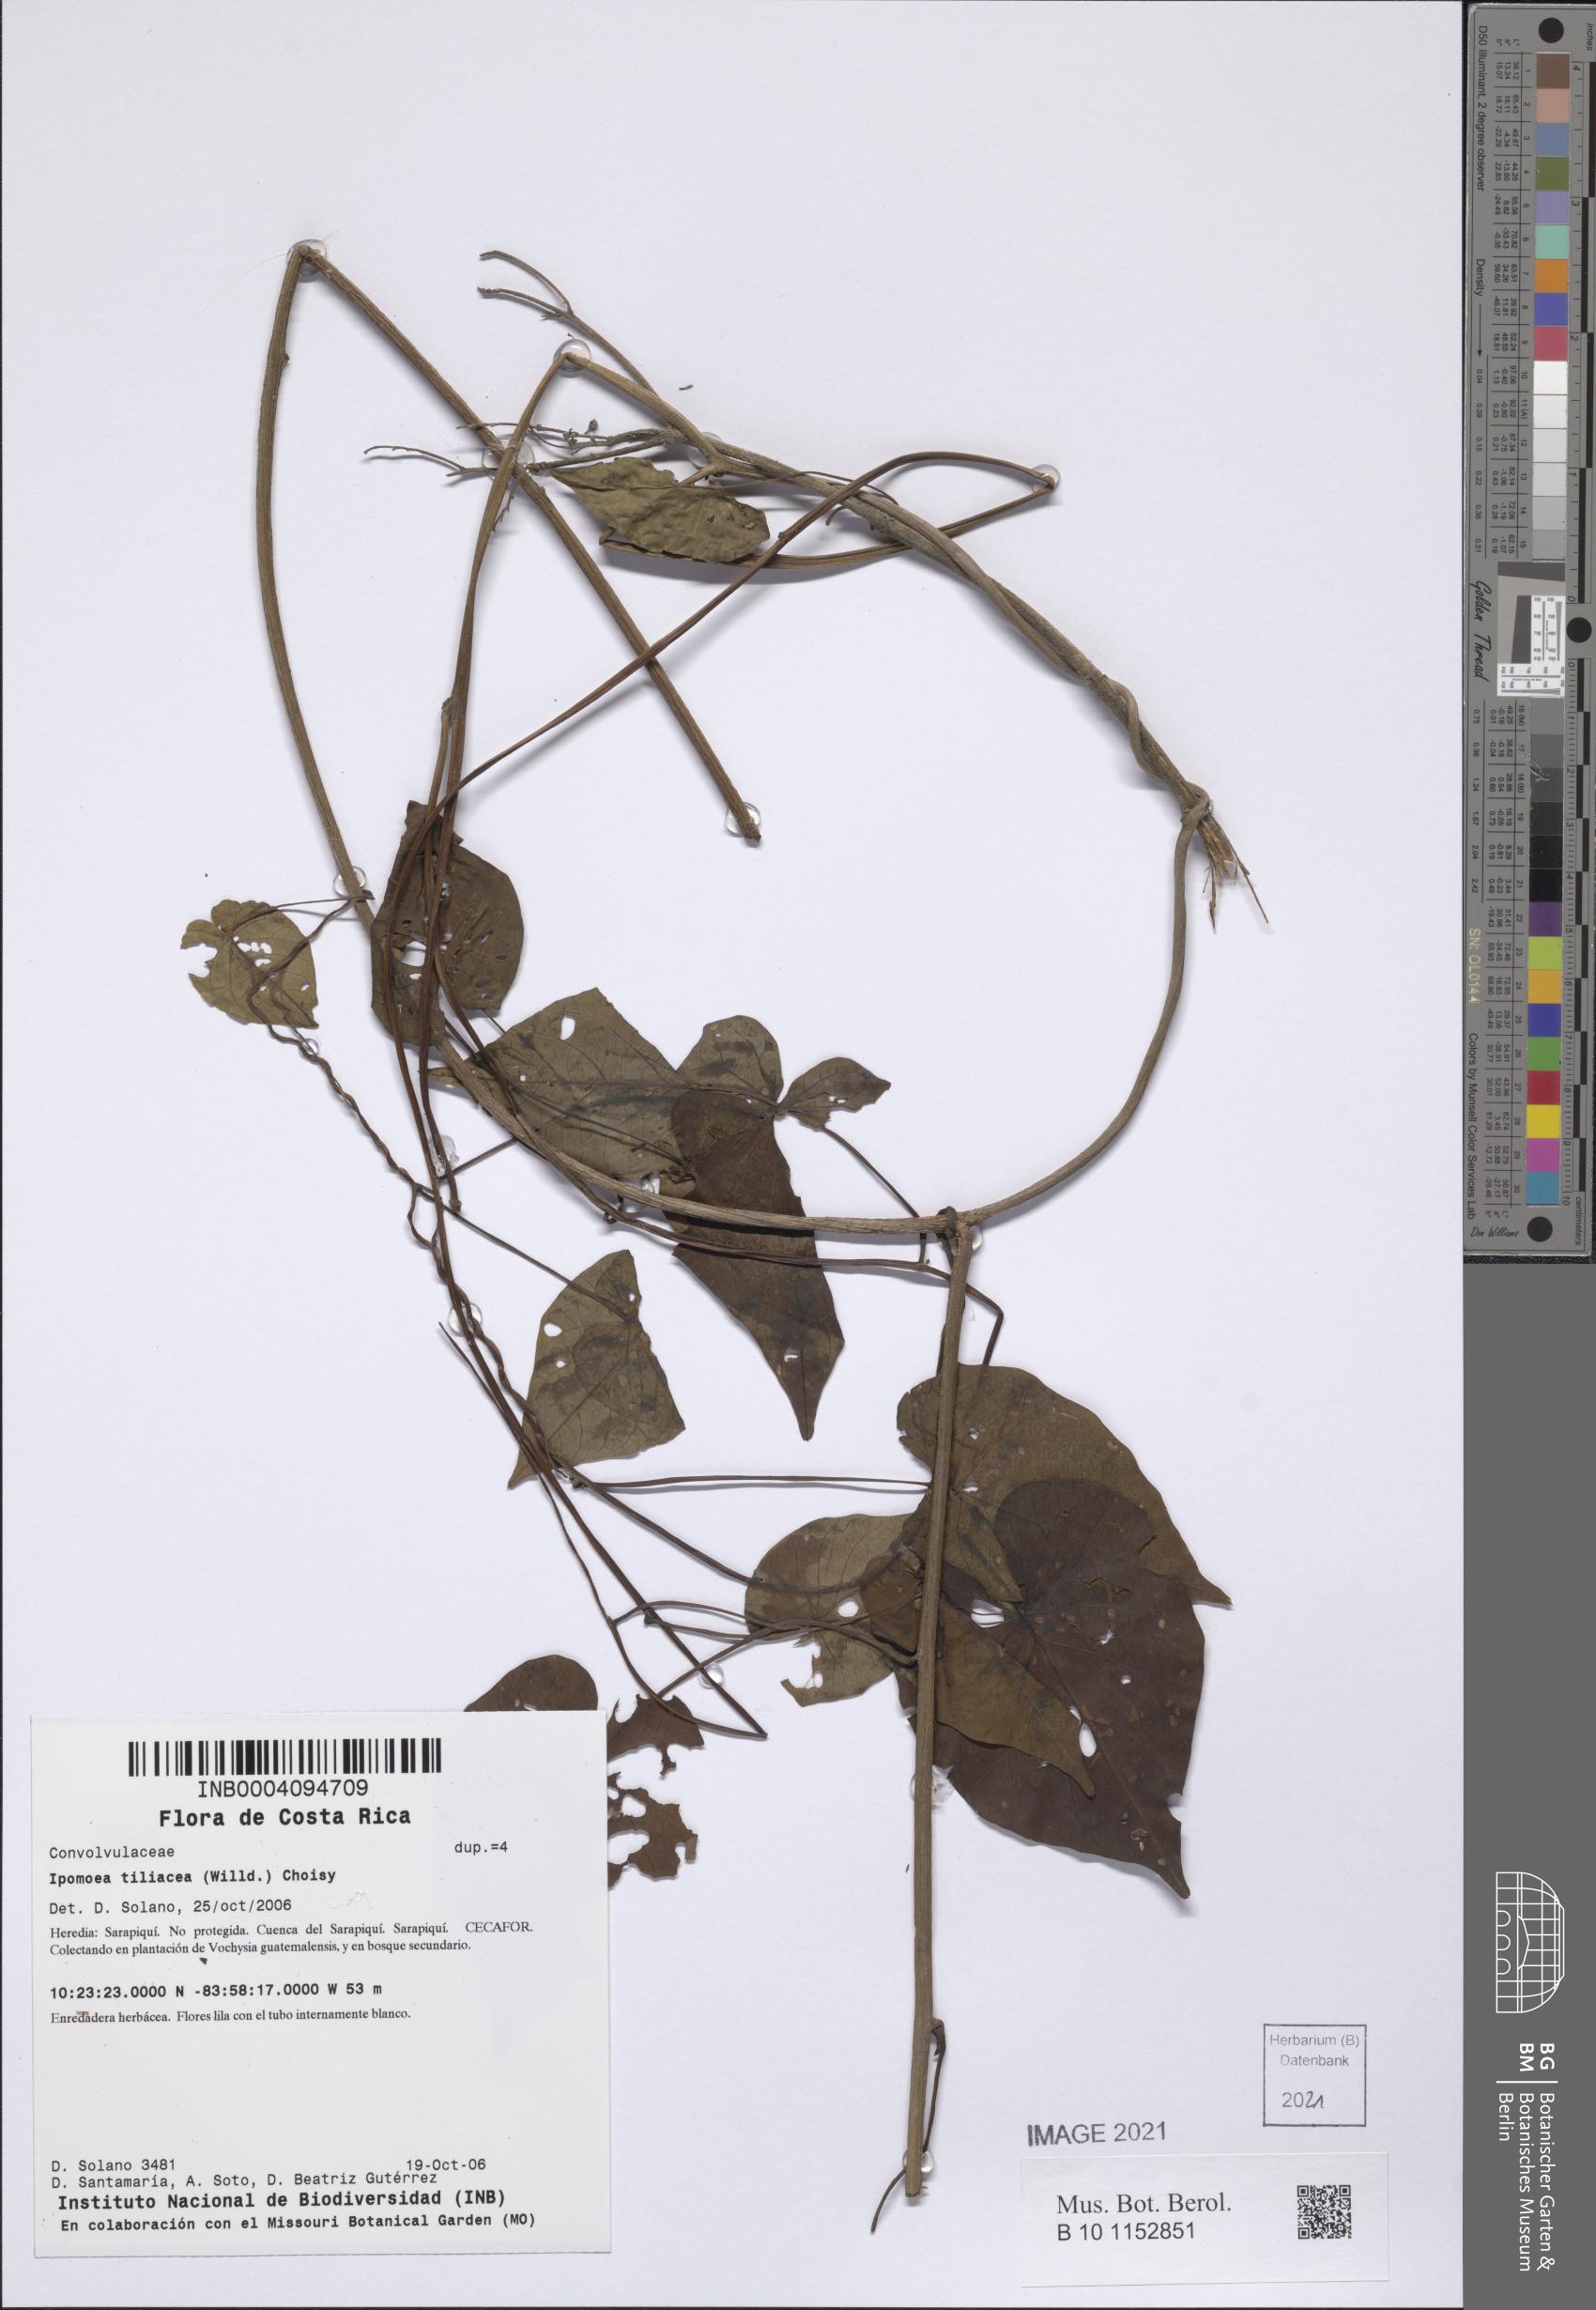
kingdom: Plantae
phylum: Tracheophyta
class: Magnoliopsida
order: Solanales
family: Convolvulaceae
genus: Ipomoea
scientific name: Ipomoea tiliacea
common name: Wild potato vine
